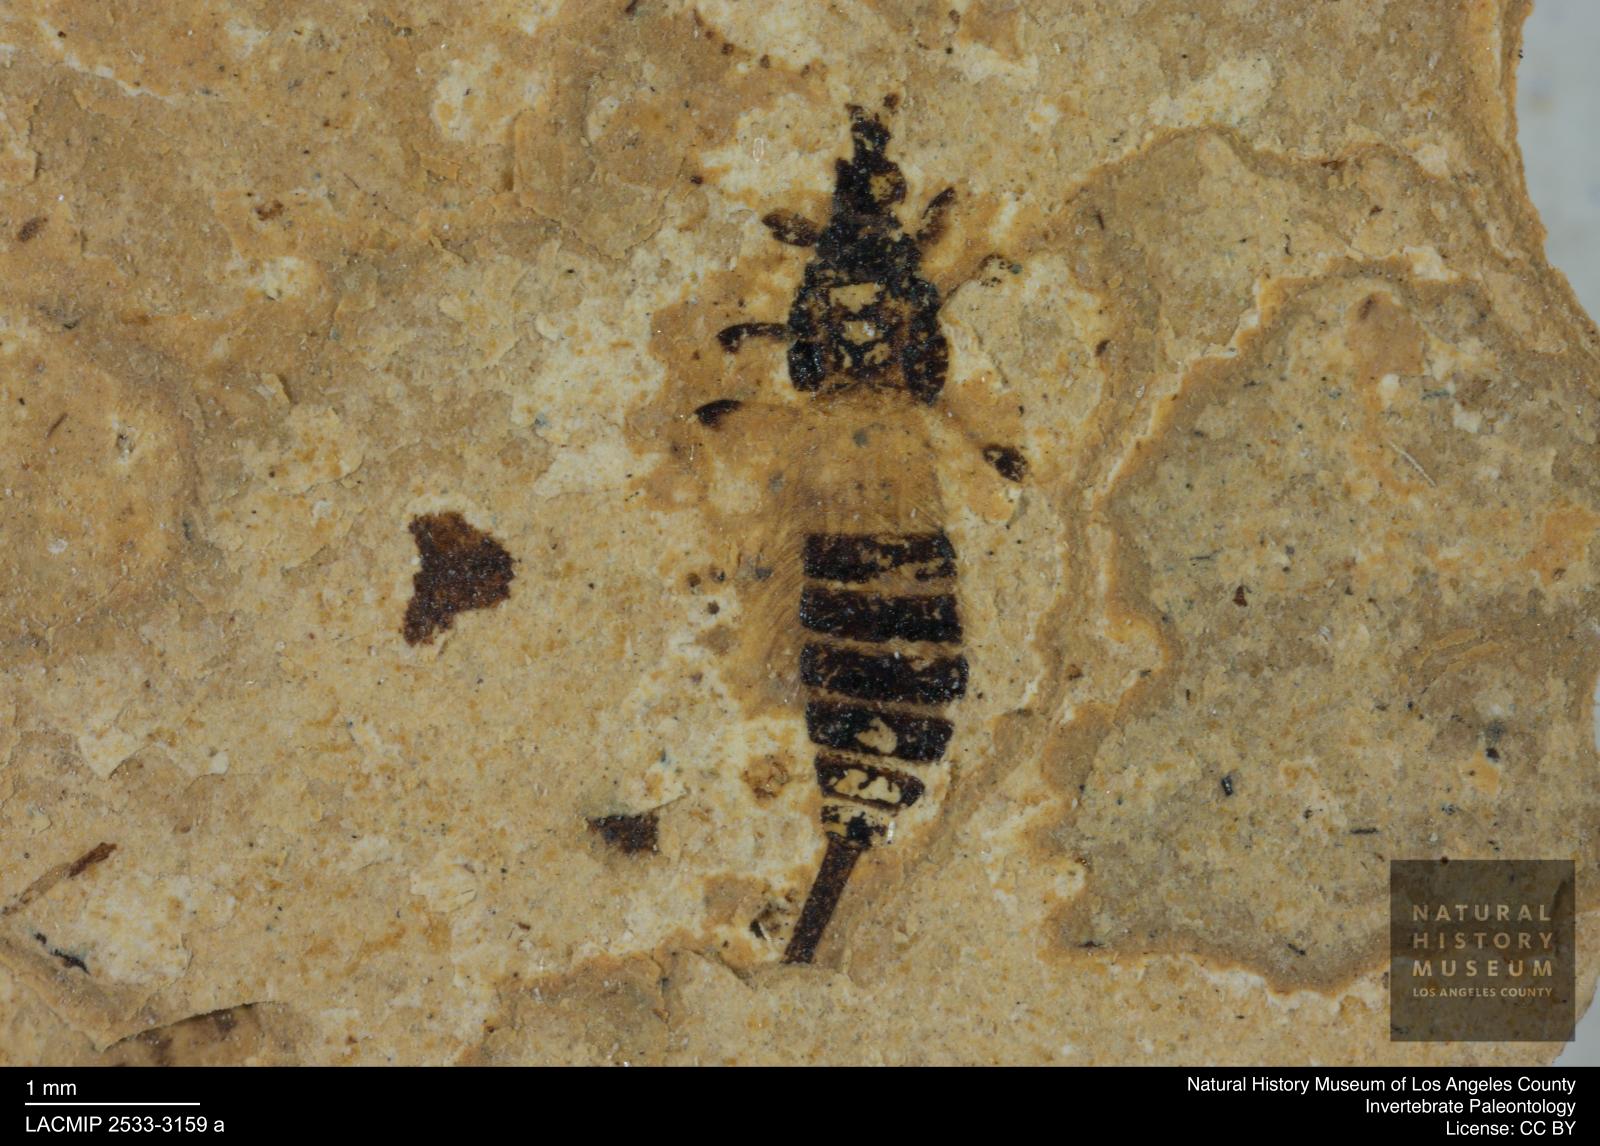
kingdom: Animalia
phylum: Arthropoda
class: Insecta
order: Thysanoptera
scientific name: Thysanoptera
